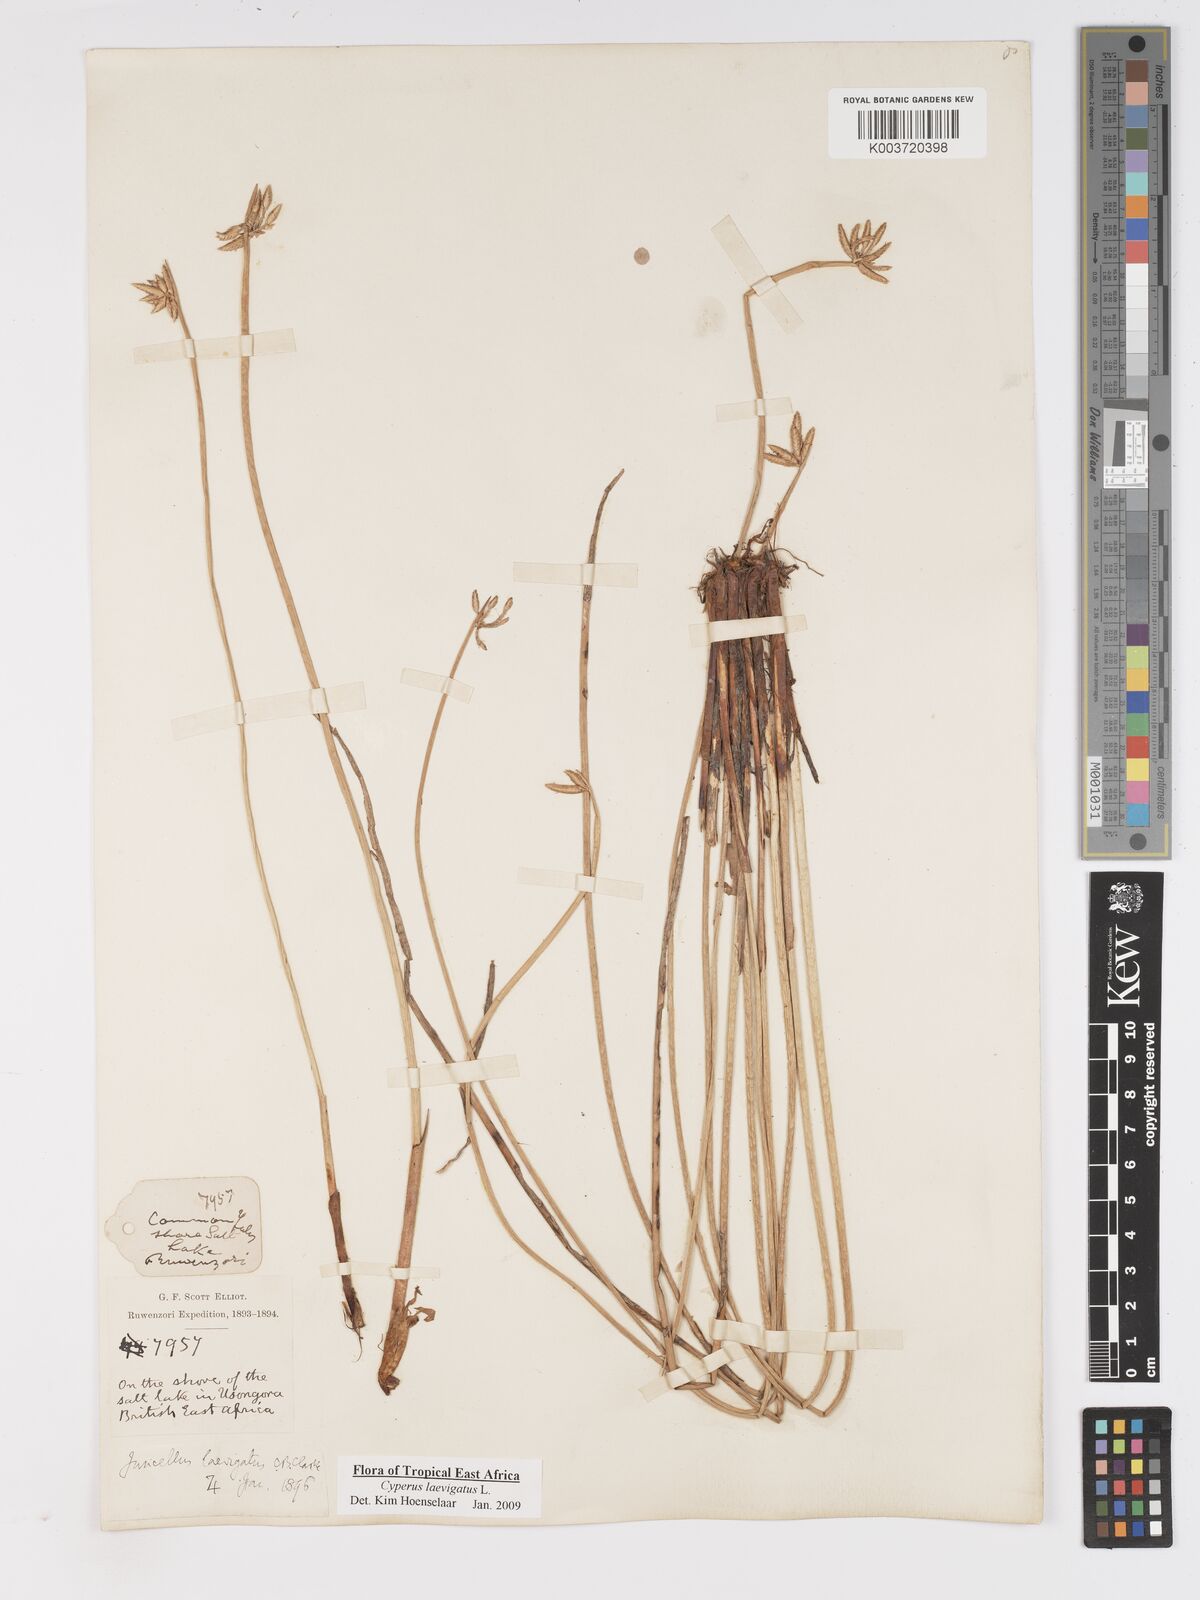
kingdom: Plantae
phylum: Tracheophyta
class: Liliopsida
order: Poales
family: Cyperaceae
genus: Cyperus
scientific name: Cyperus laevigatus
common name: Smooth flat sedge
